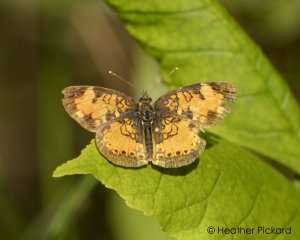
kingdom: Animalia
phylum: Arthropoda
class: Insecta
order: Lepidoptera
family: Nymphalidae
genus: Phyciodes
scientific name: Phyciodes tharos
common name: Northern Crescent
